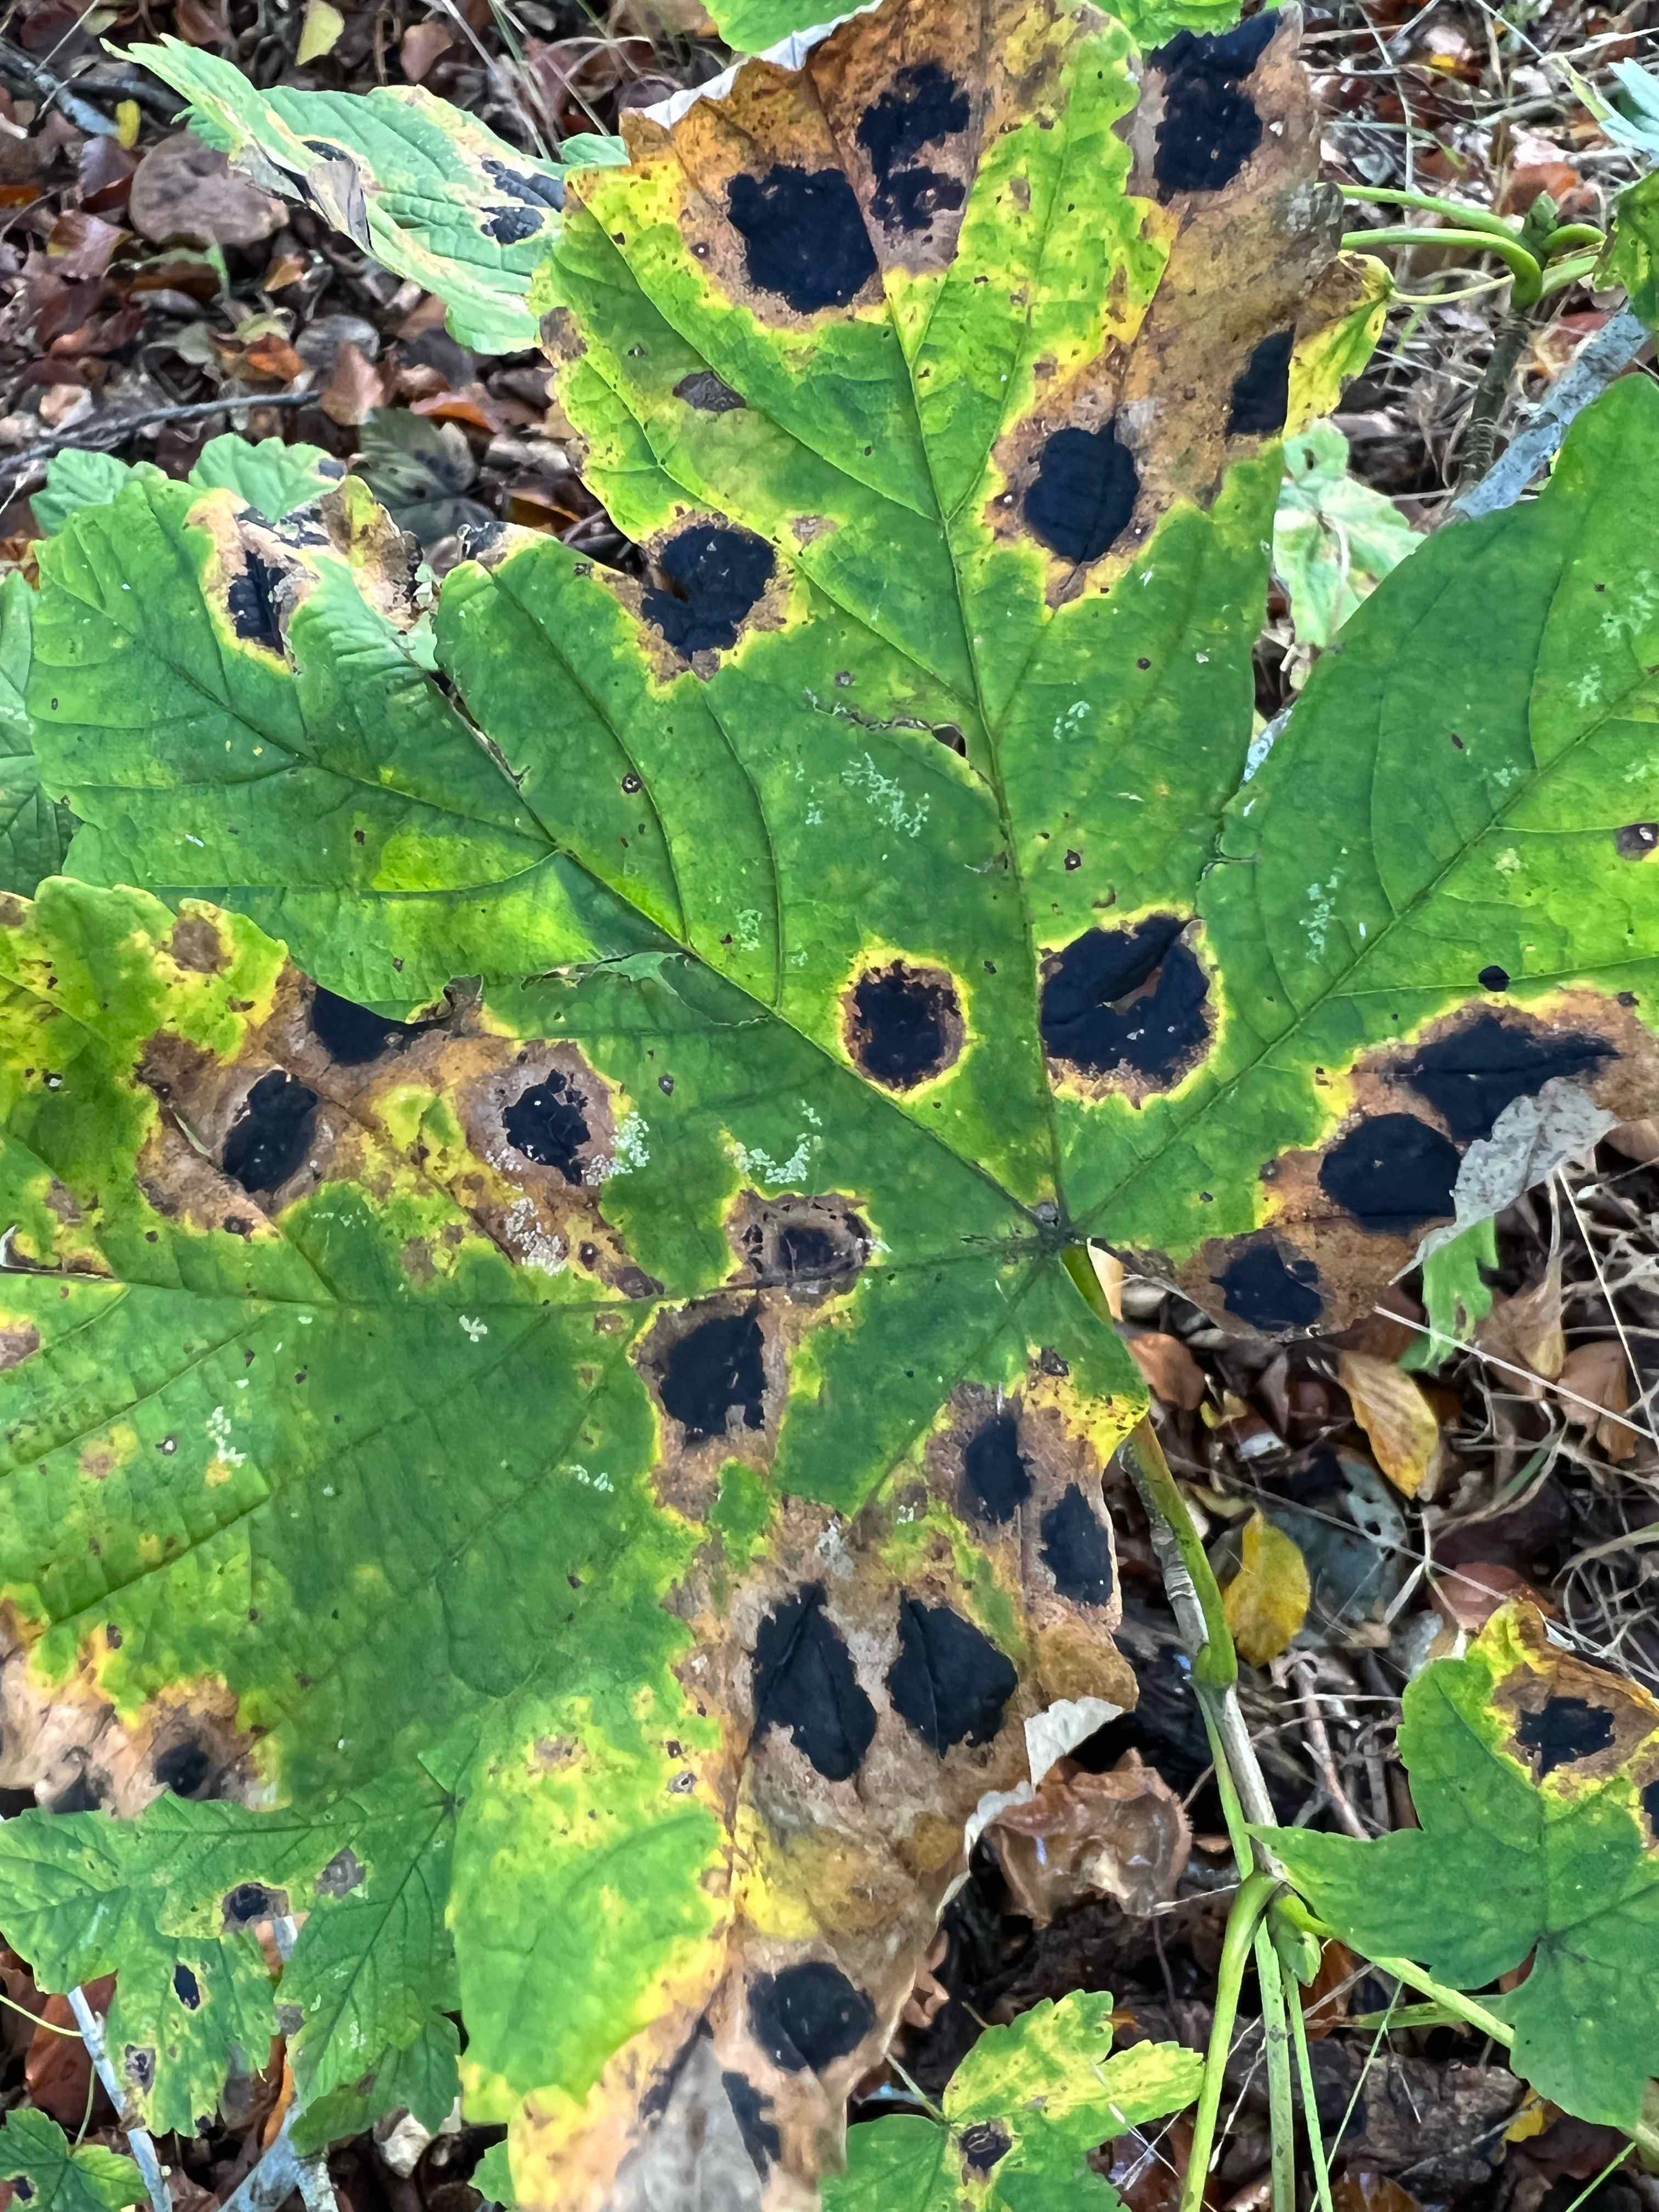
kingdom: Fungi
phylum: Ascomycota
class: Leotiomycetes
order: Rhytismatales
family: Rhytismataceae
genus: Rhytisma
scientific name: Rhytisma acerinum
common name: ahorn-rynkeplet
